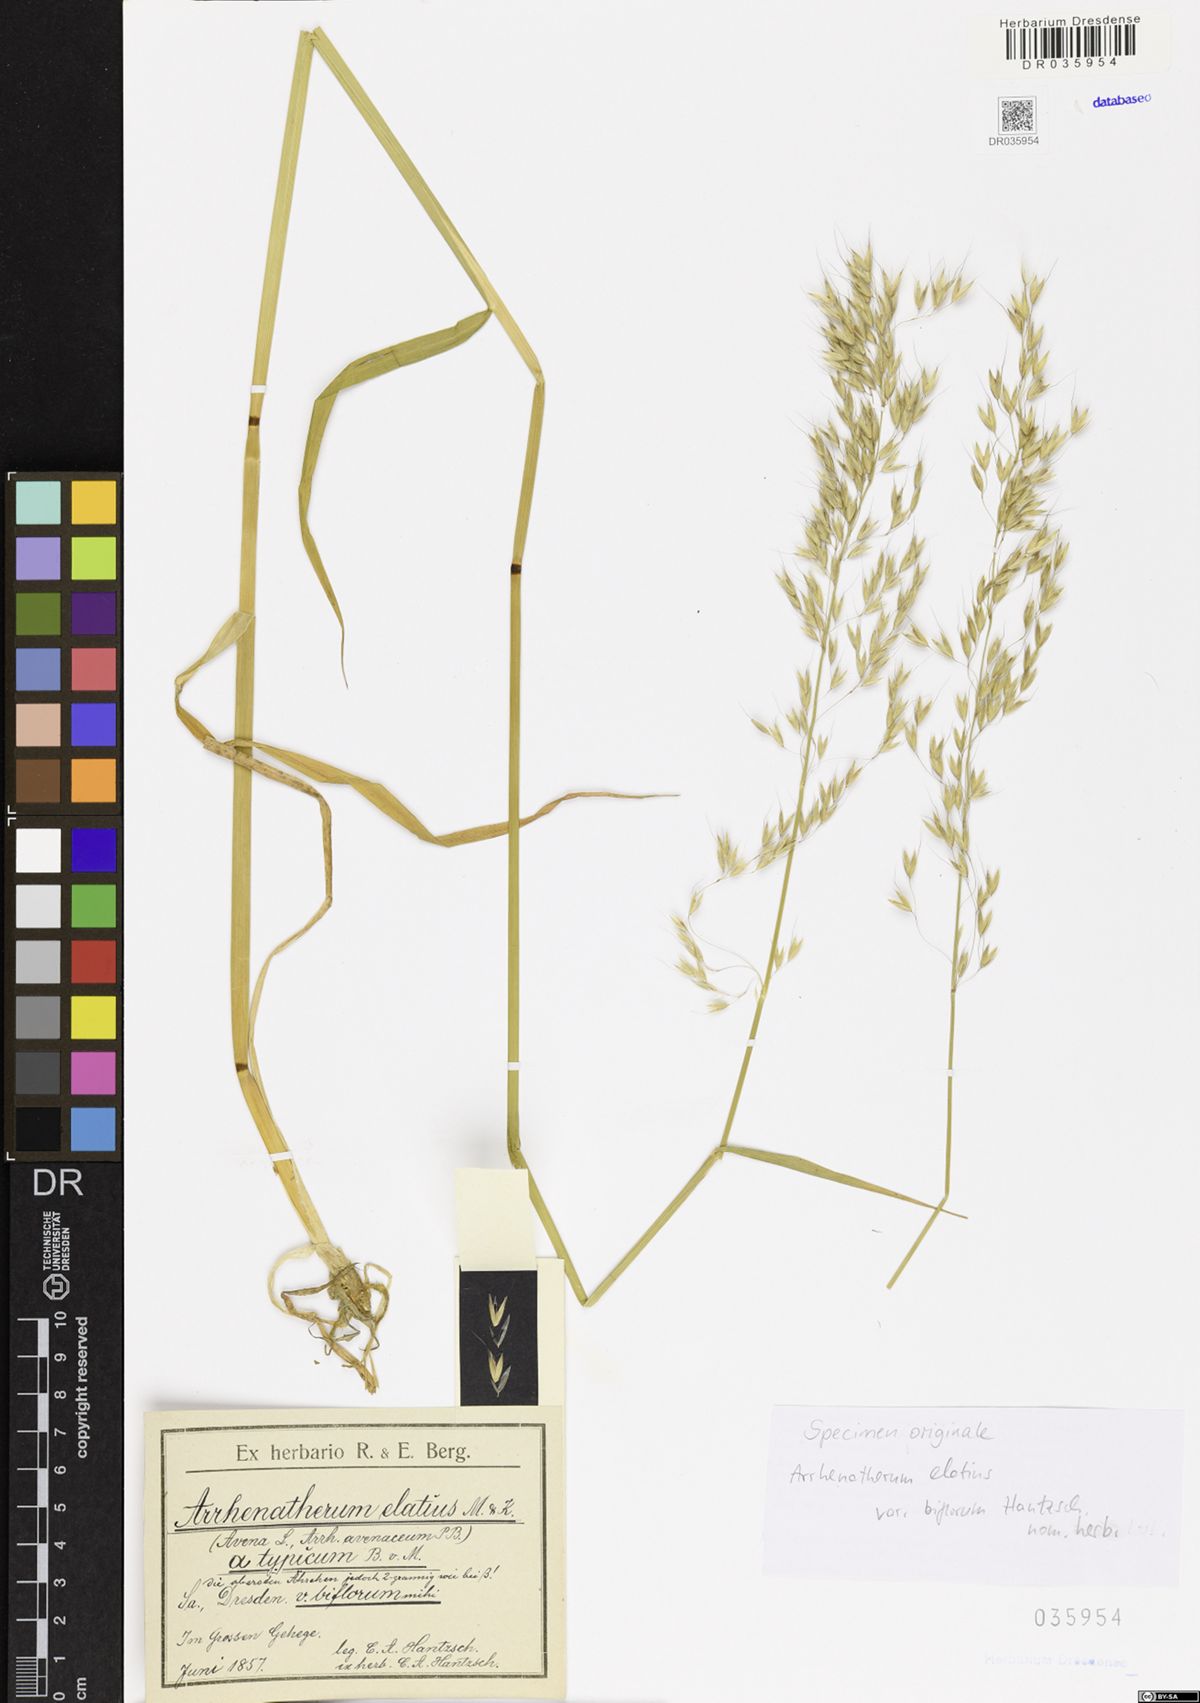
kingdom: Plantae
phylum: Tracheophyta
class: Liliopsida
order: Poales
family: Poaceae
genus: Arrhenatherum
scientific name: Arrhenatherum elatius
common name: Tall oatgrass
